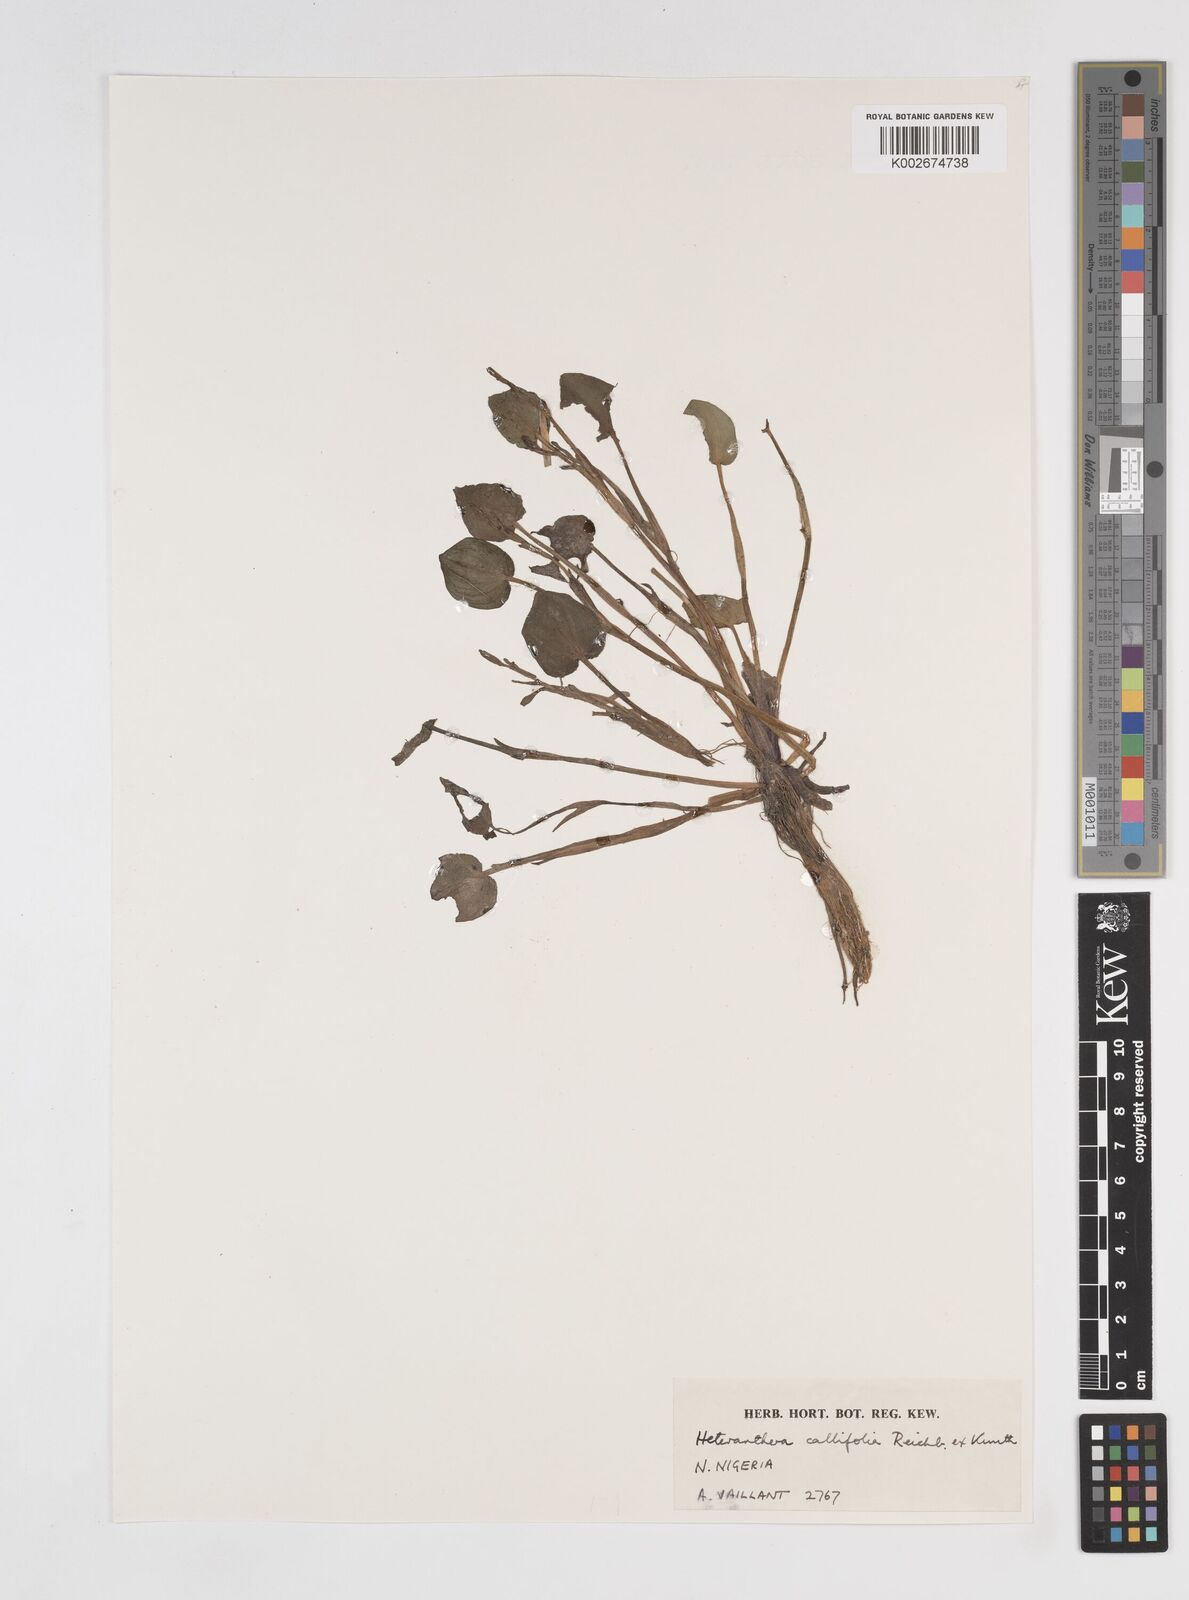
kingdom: Plantae
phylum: Tracheophyta
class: Liliopsida
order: Commelinales
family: Pontederiaceae
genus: Heteranthera
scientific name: Heteranthera callifolia
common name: Mud plantain
